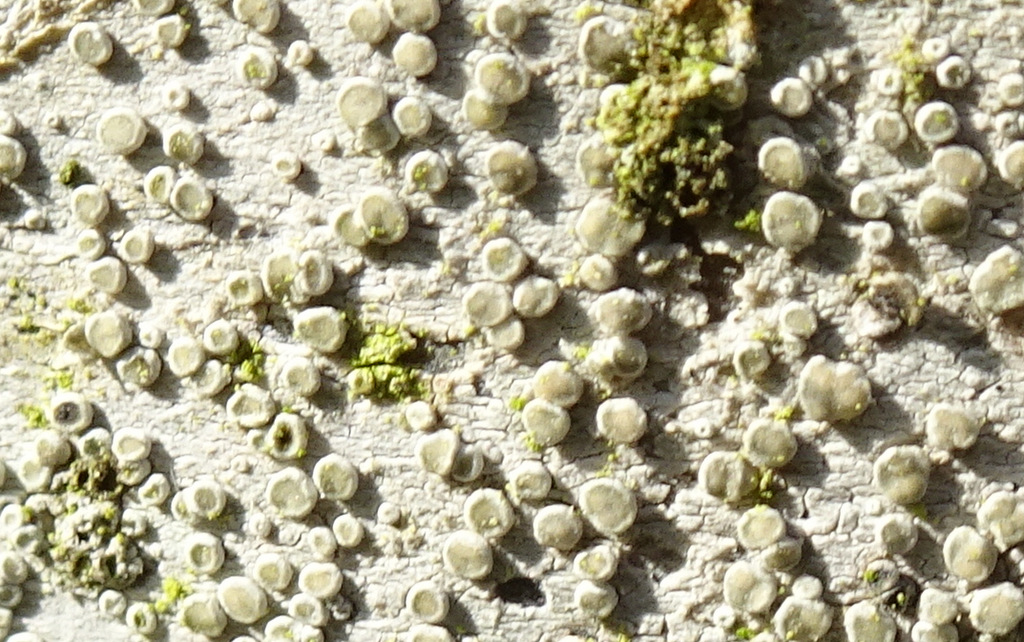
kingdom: Fungi
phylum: Ascomycota
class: Lecanoromycetes
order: Lecanorales
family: Lecanoraceae
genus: Glaucomaria
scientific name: Glaucomaria carpinea
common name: hviddugget kantskivelav
